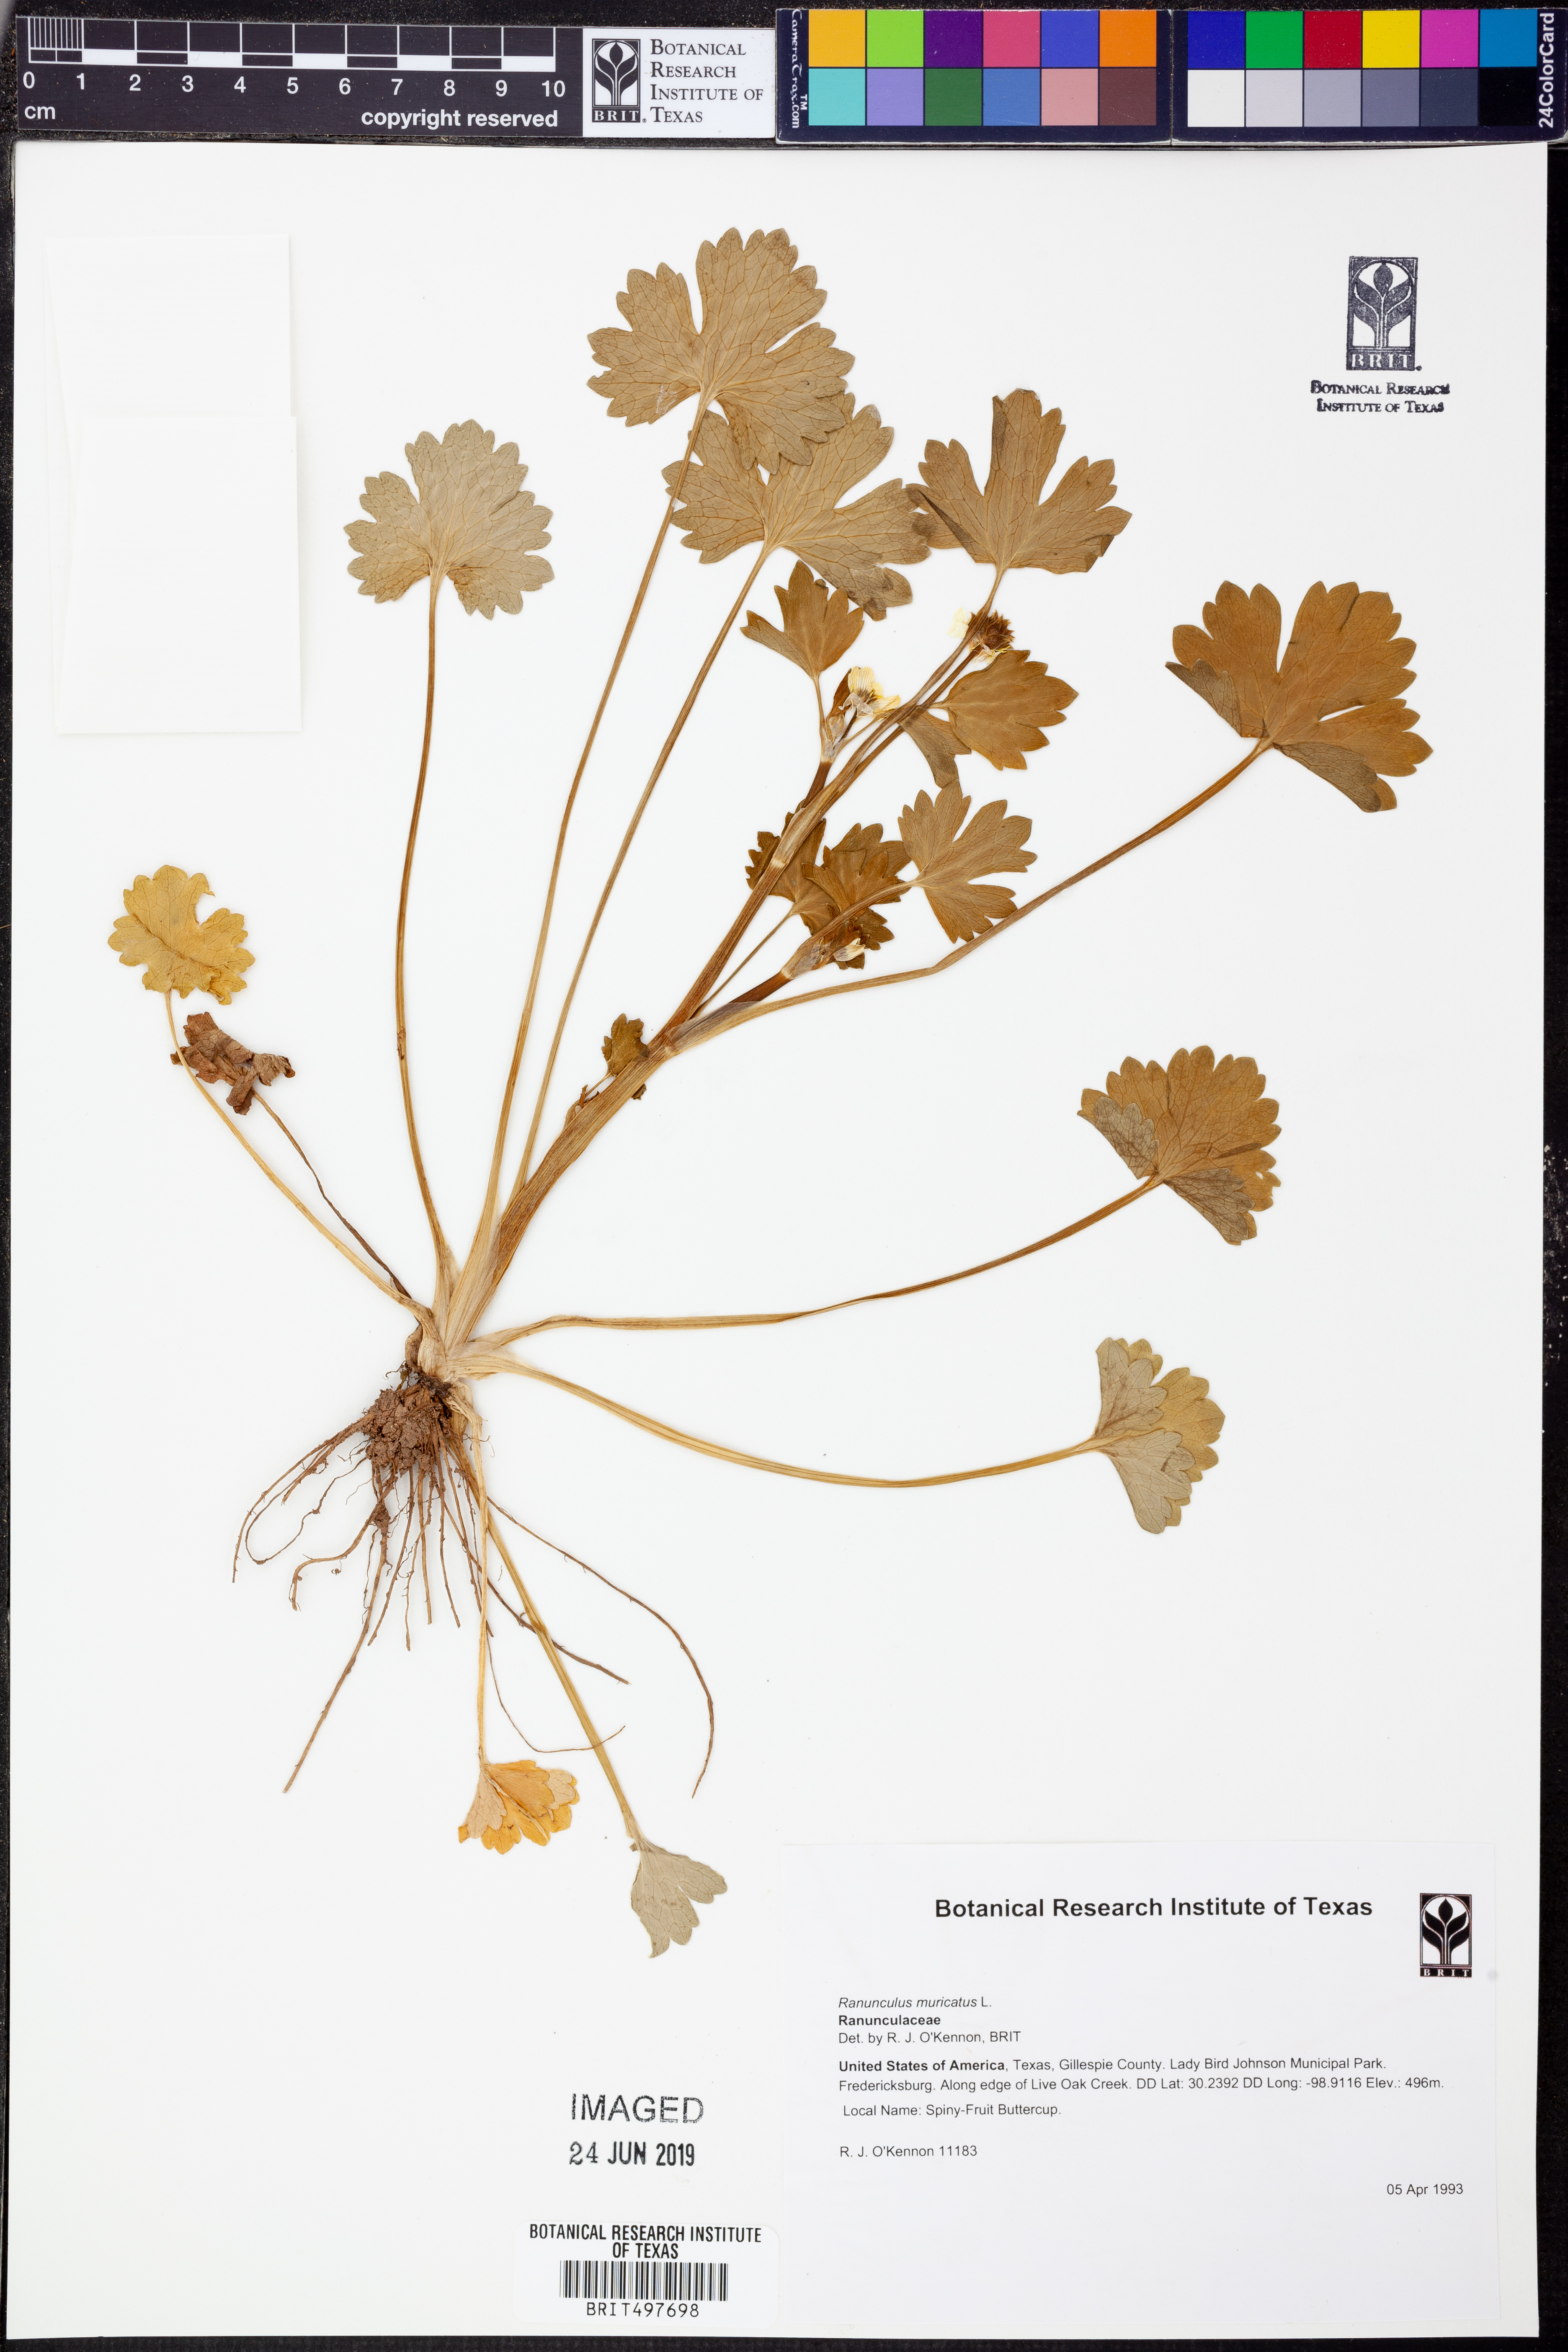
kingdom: Plantae
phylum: Tracheophyta
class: Magnoliopsida
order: Ranunculales
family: Ranunculaceae
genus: Ranunculus
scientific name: Ranunculus muricatus
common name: Rough-fruited buttercup
